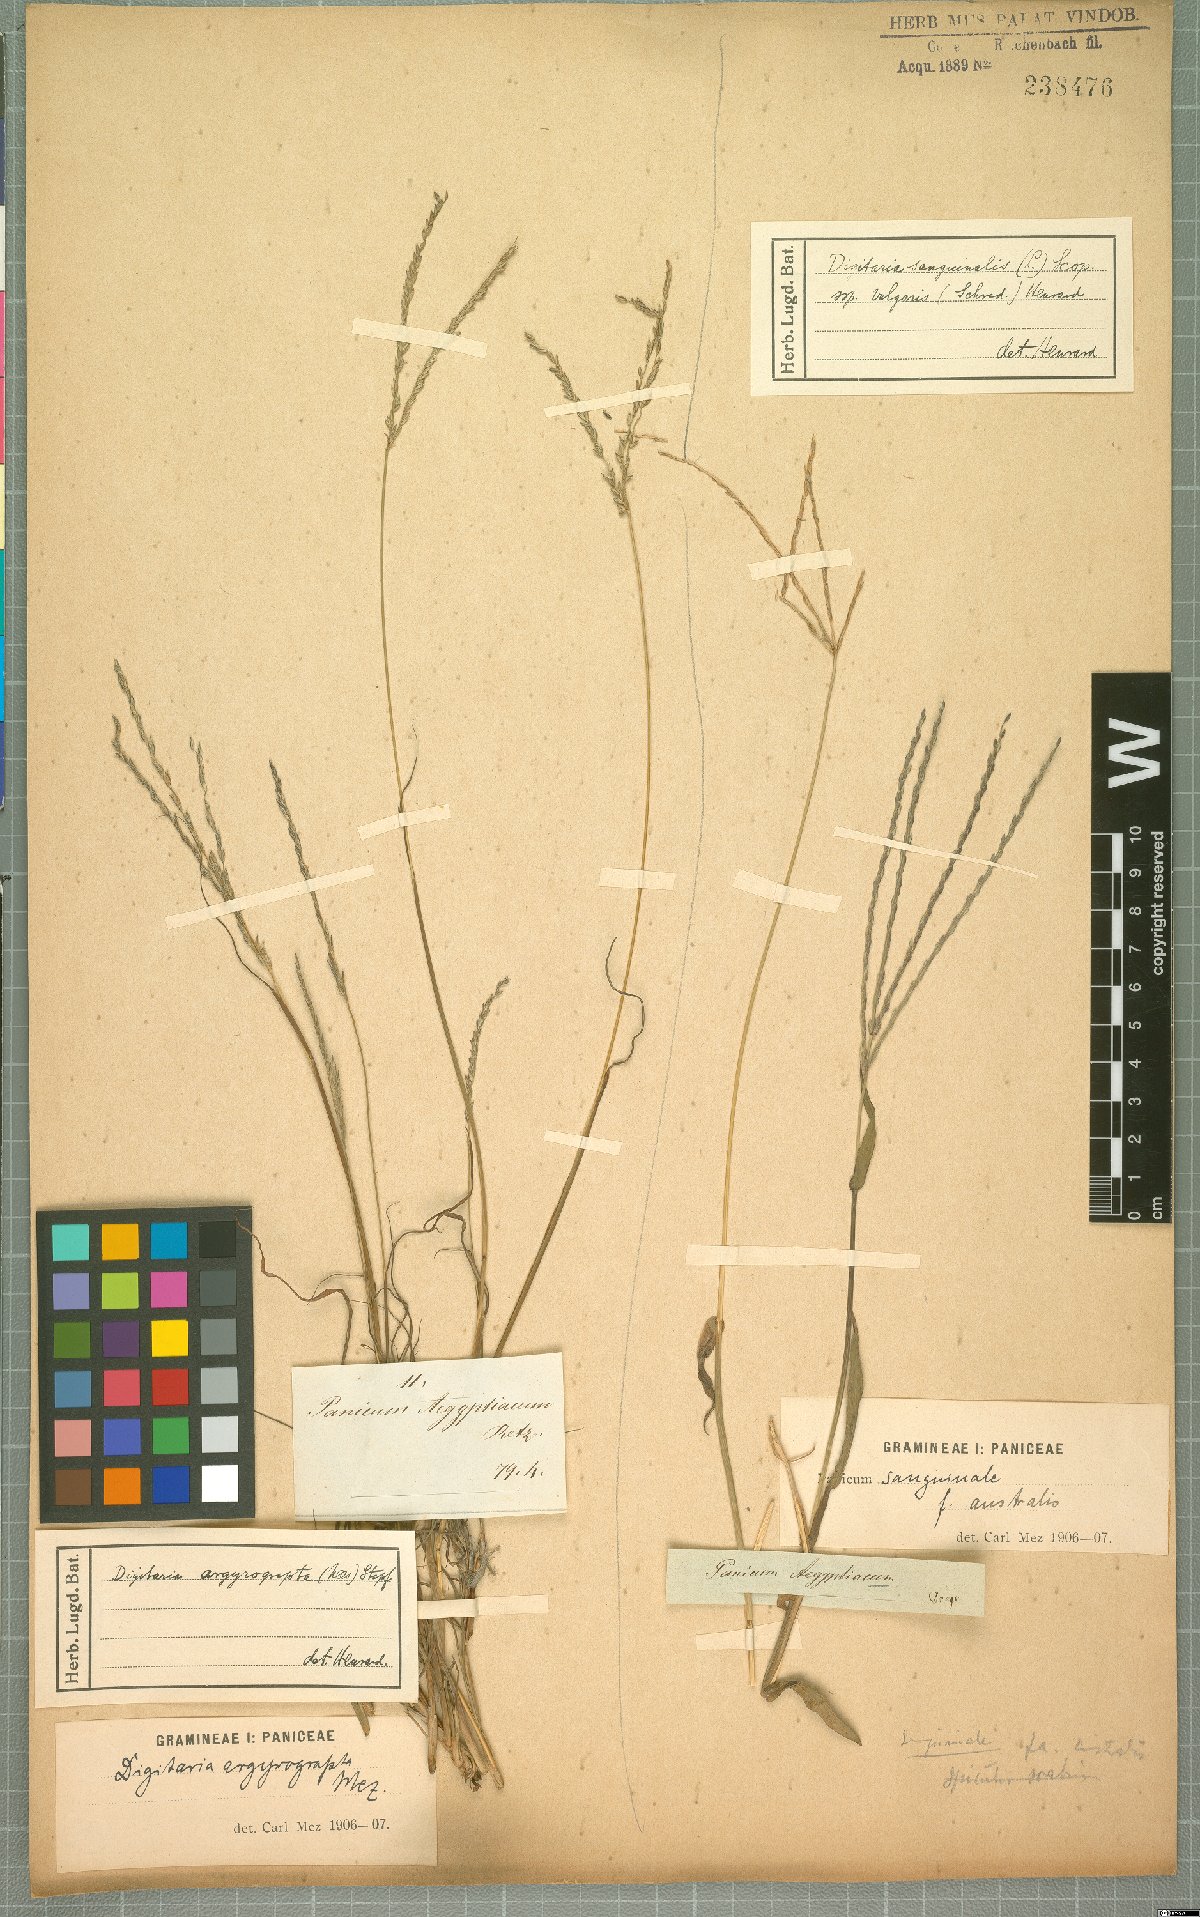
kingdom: Plantae
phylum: Tracheophyta
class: Liliopsida
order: Poales
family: Poaceae
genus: Digitaria
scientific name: Digitaria sanguinalis
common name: Hairy crabgrass
